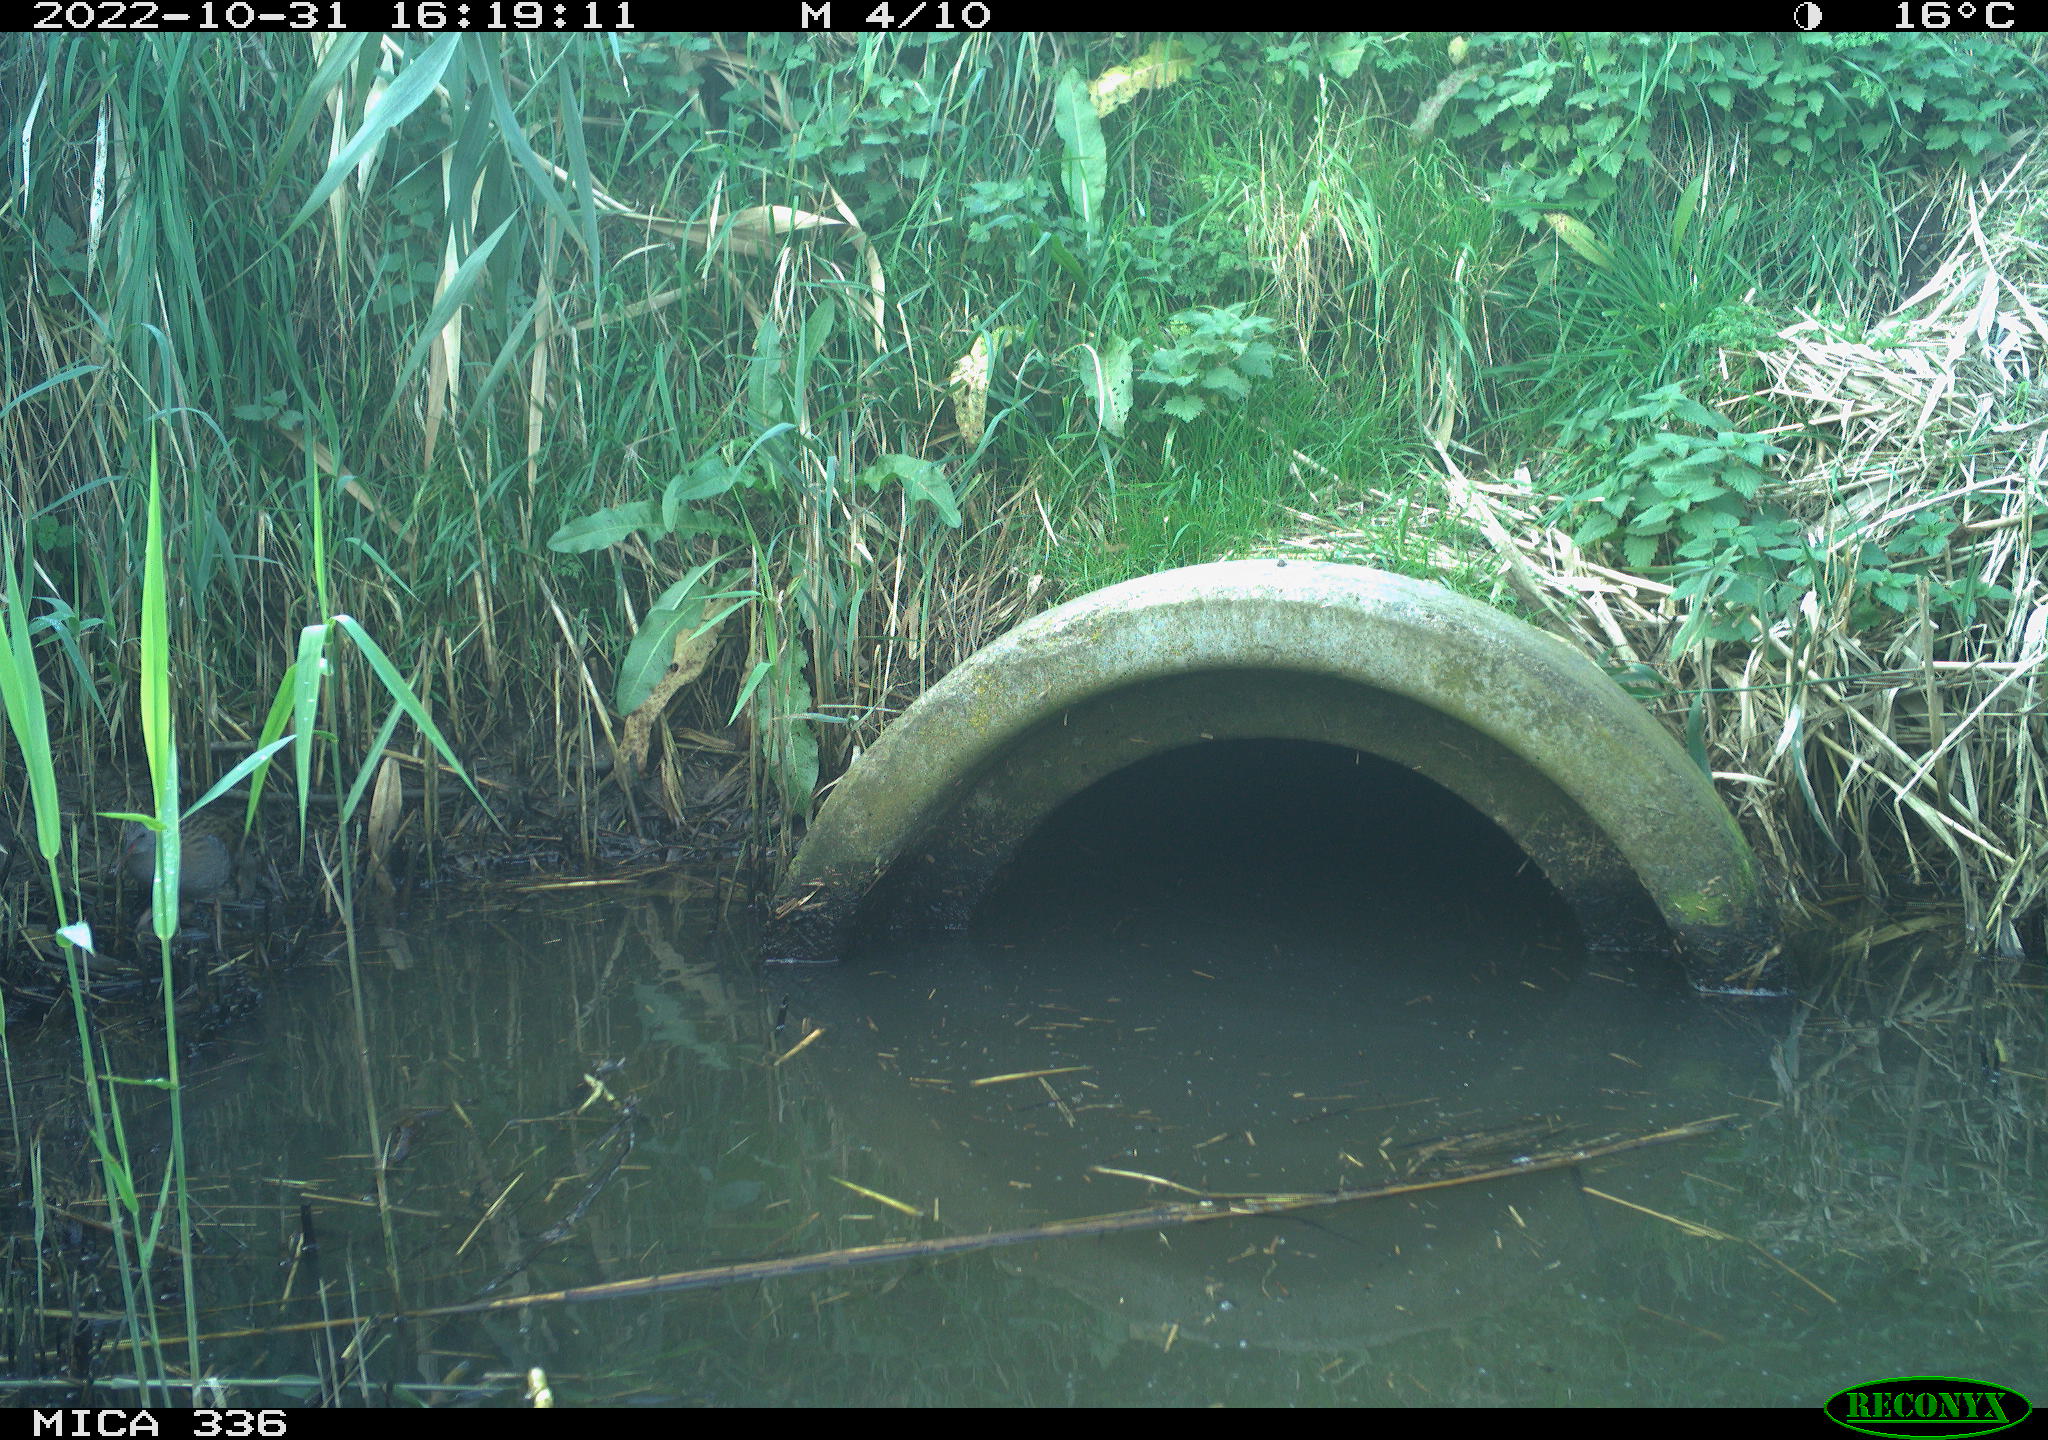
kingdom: Animalia
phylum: Chordata
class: Aves
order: Gruiformes
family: Rallidae
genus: Rallus
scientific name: Rallus aquaticus
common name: Water rail
